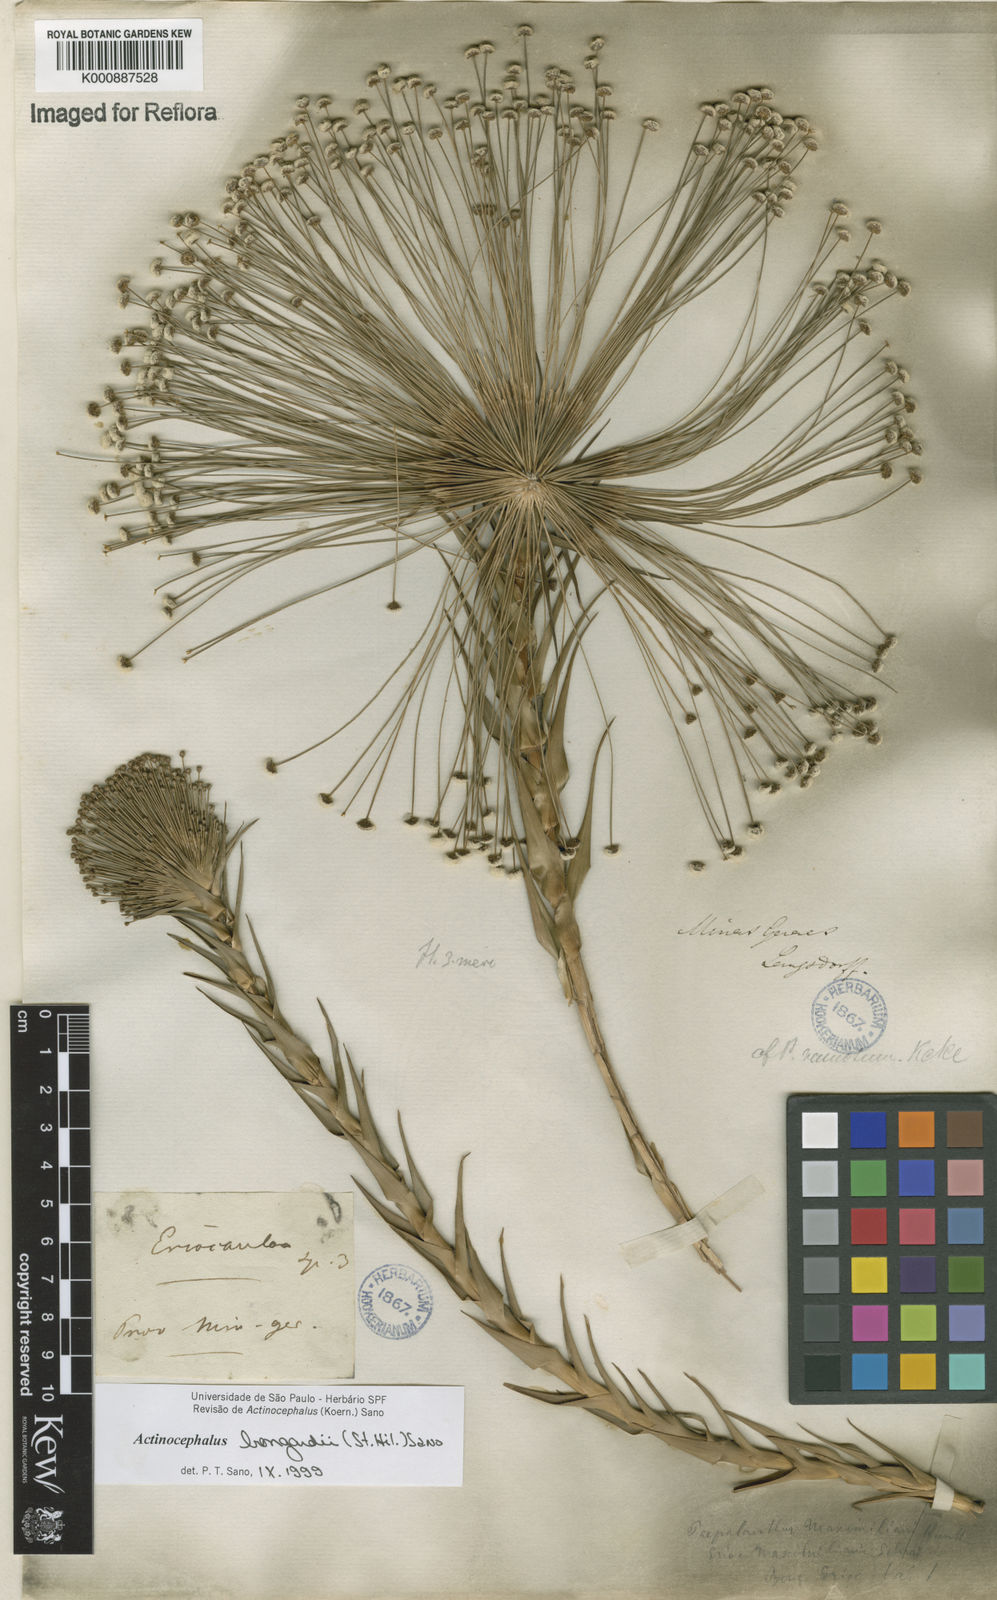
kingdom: Plantae
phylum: Tracheophyta
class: Liliopsida
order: Poales
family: Eriocaulaceae
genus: Paepalanthus
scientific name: Paepalanthus hilairei
